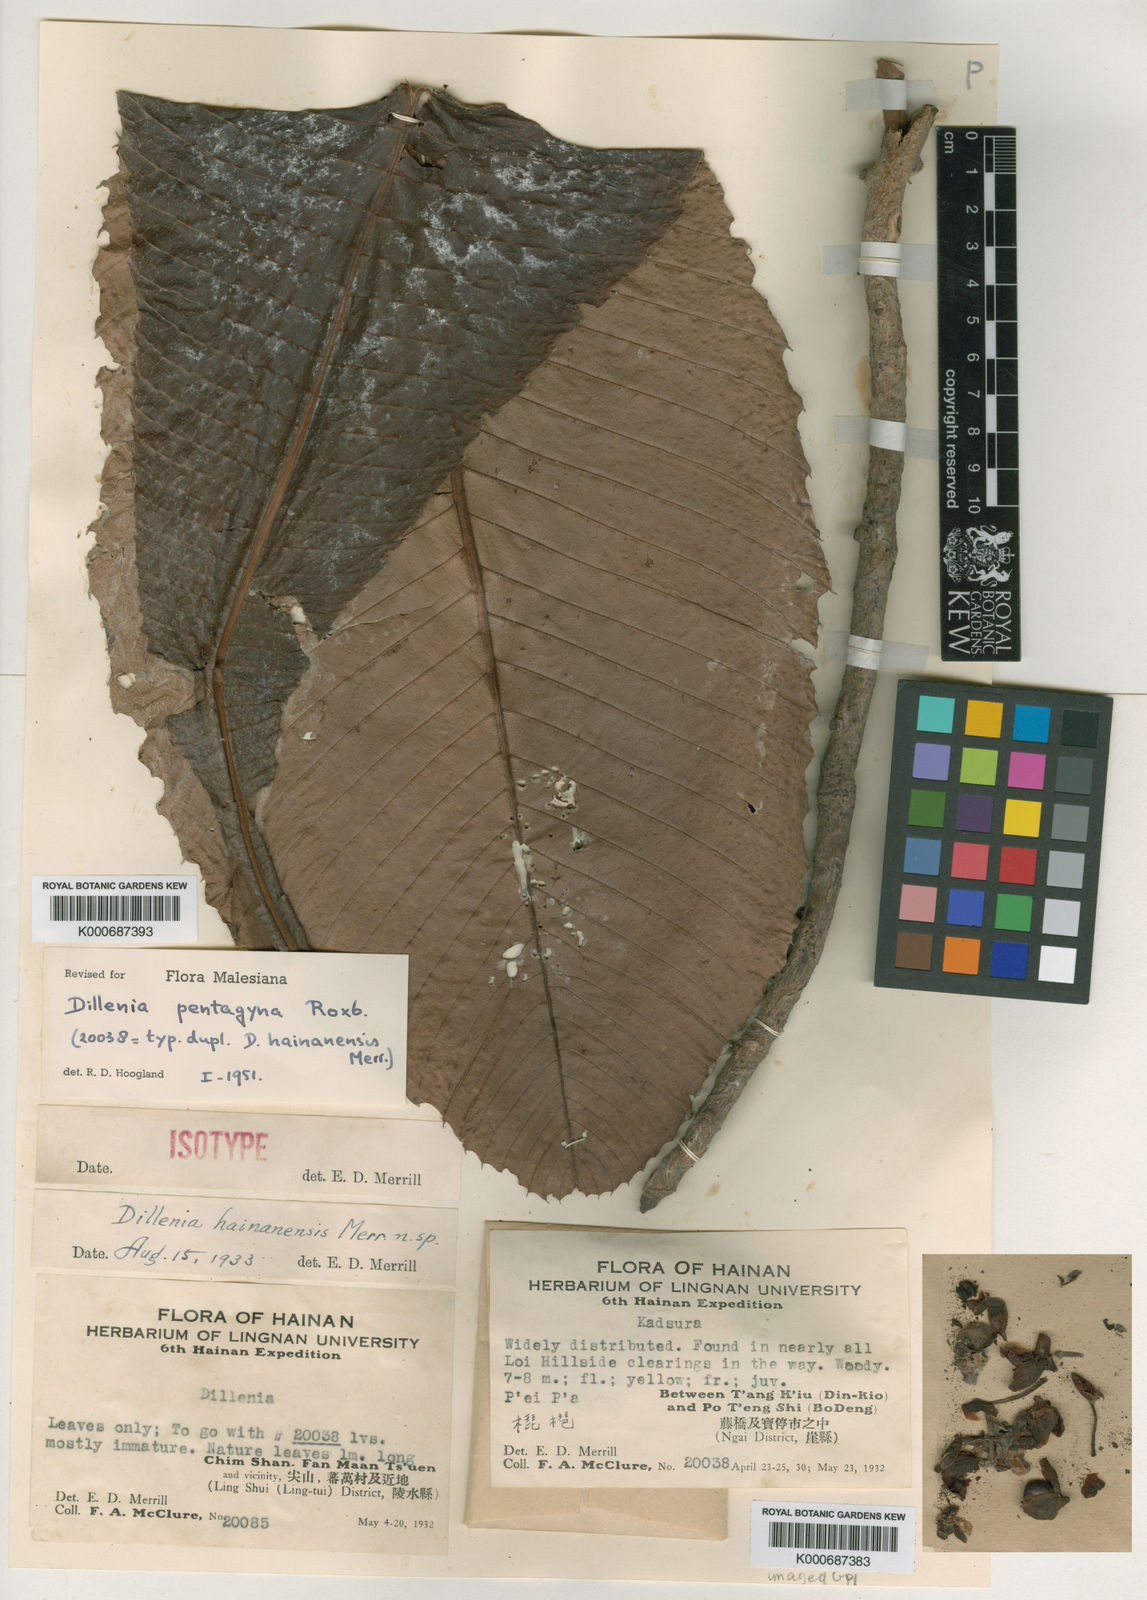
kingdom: Plantae
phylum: Tracheophyta
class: Magnoliopsida
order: Dilleniales
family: Dilleniaceae
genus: Dillenia
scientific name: Dillenia pentagyna
